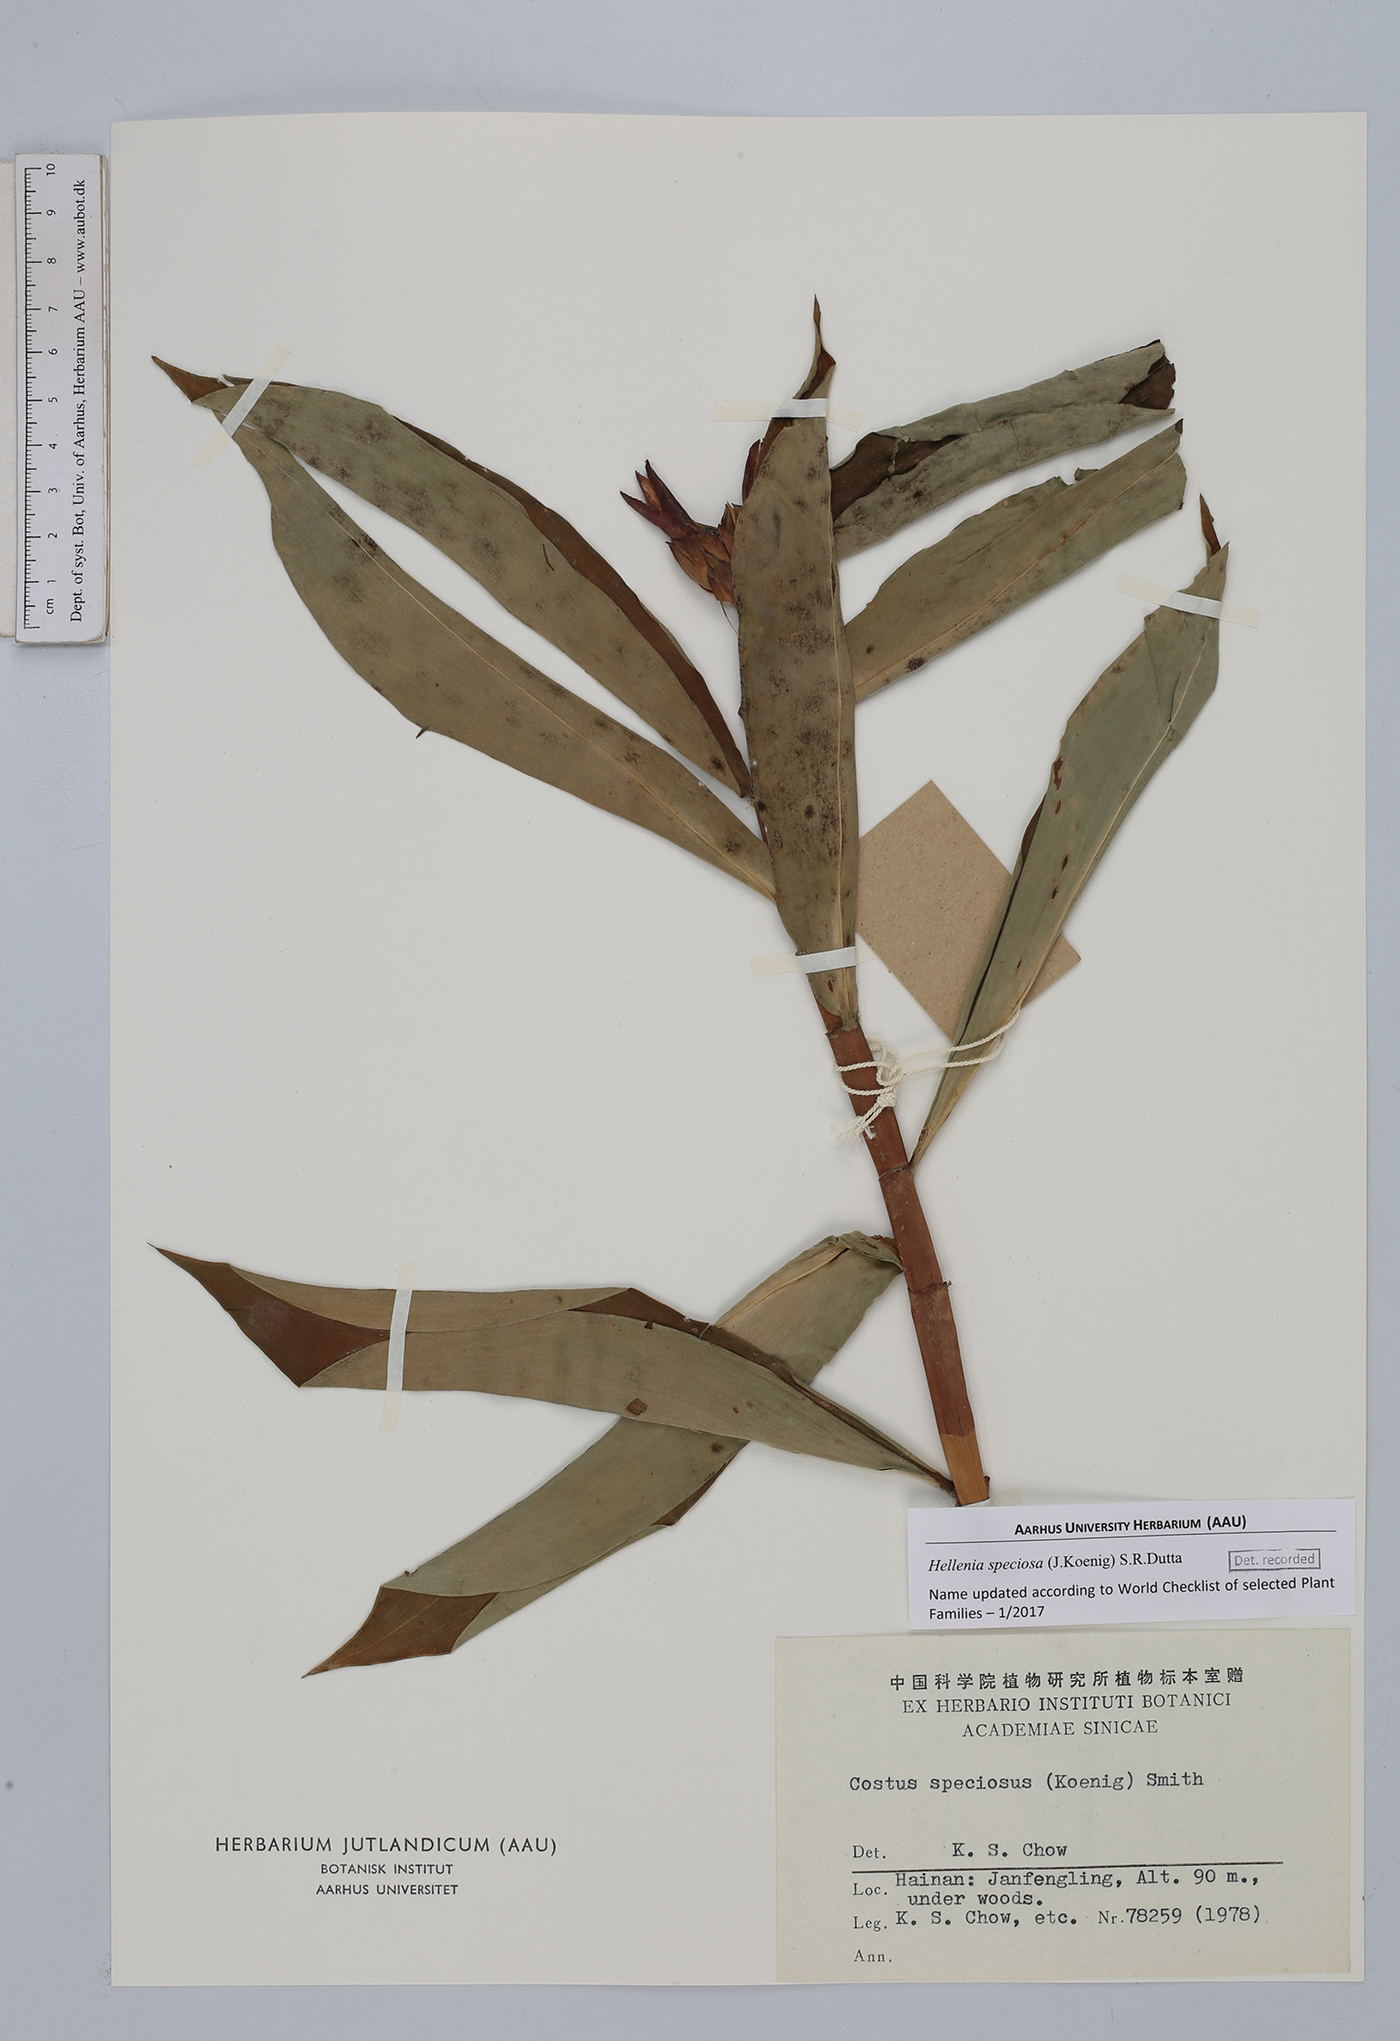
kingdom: Plantae
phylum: Tracheophyta
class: Liliopsida
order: Zingiberales
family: Costaceae
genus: Hellenia
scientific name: Hellenia speciosa
